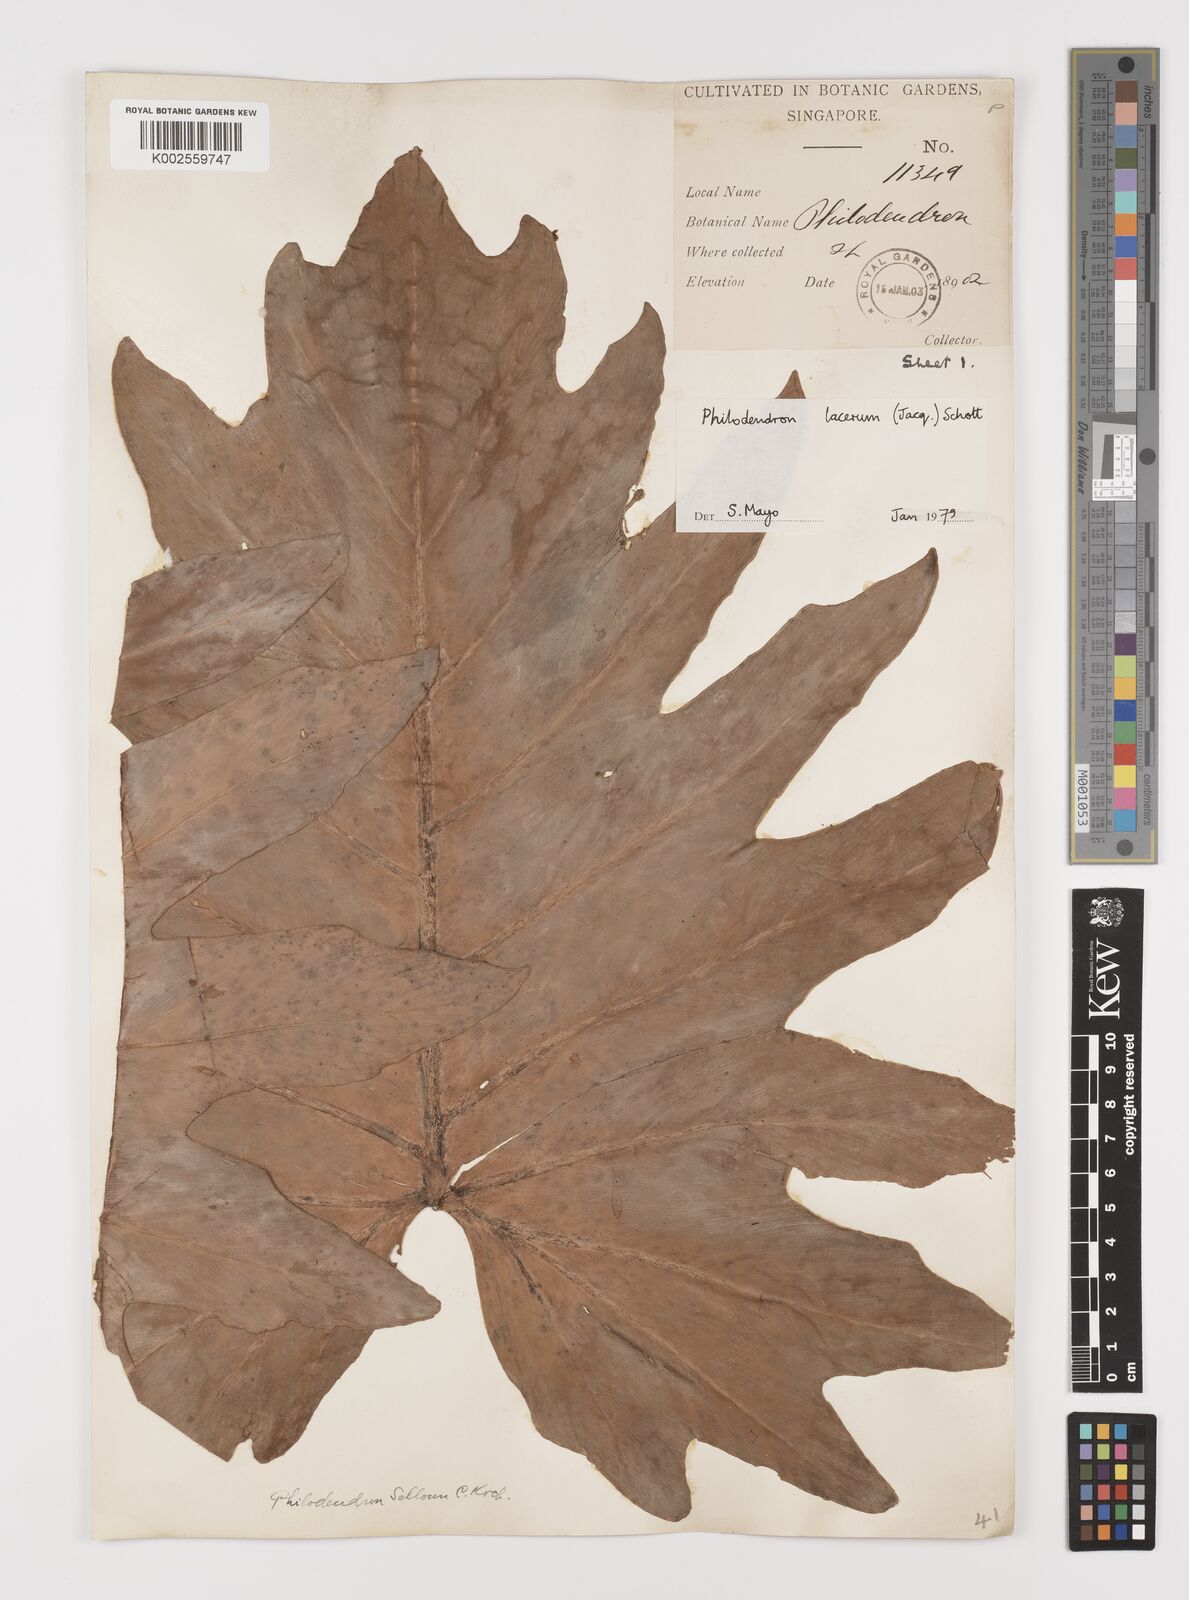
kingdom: Plantae
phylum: Tracheophyta
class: Liliopsida
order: Alismatales
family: Araceae
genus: Philodendron
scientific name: Philodendron lacerum
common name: Philodendron
